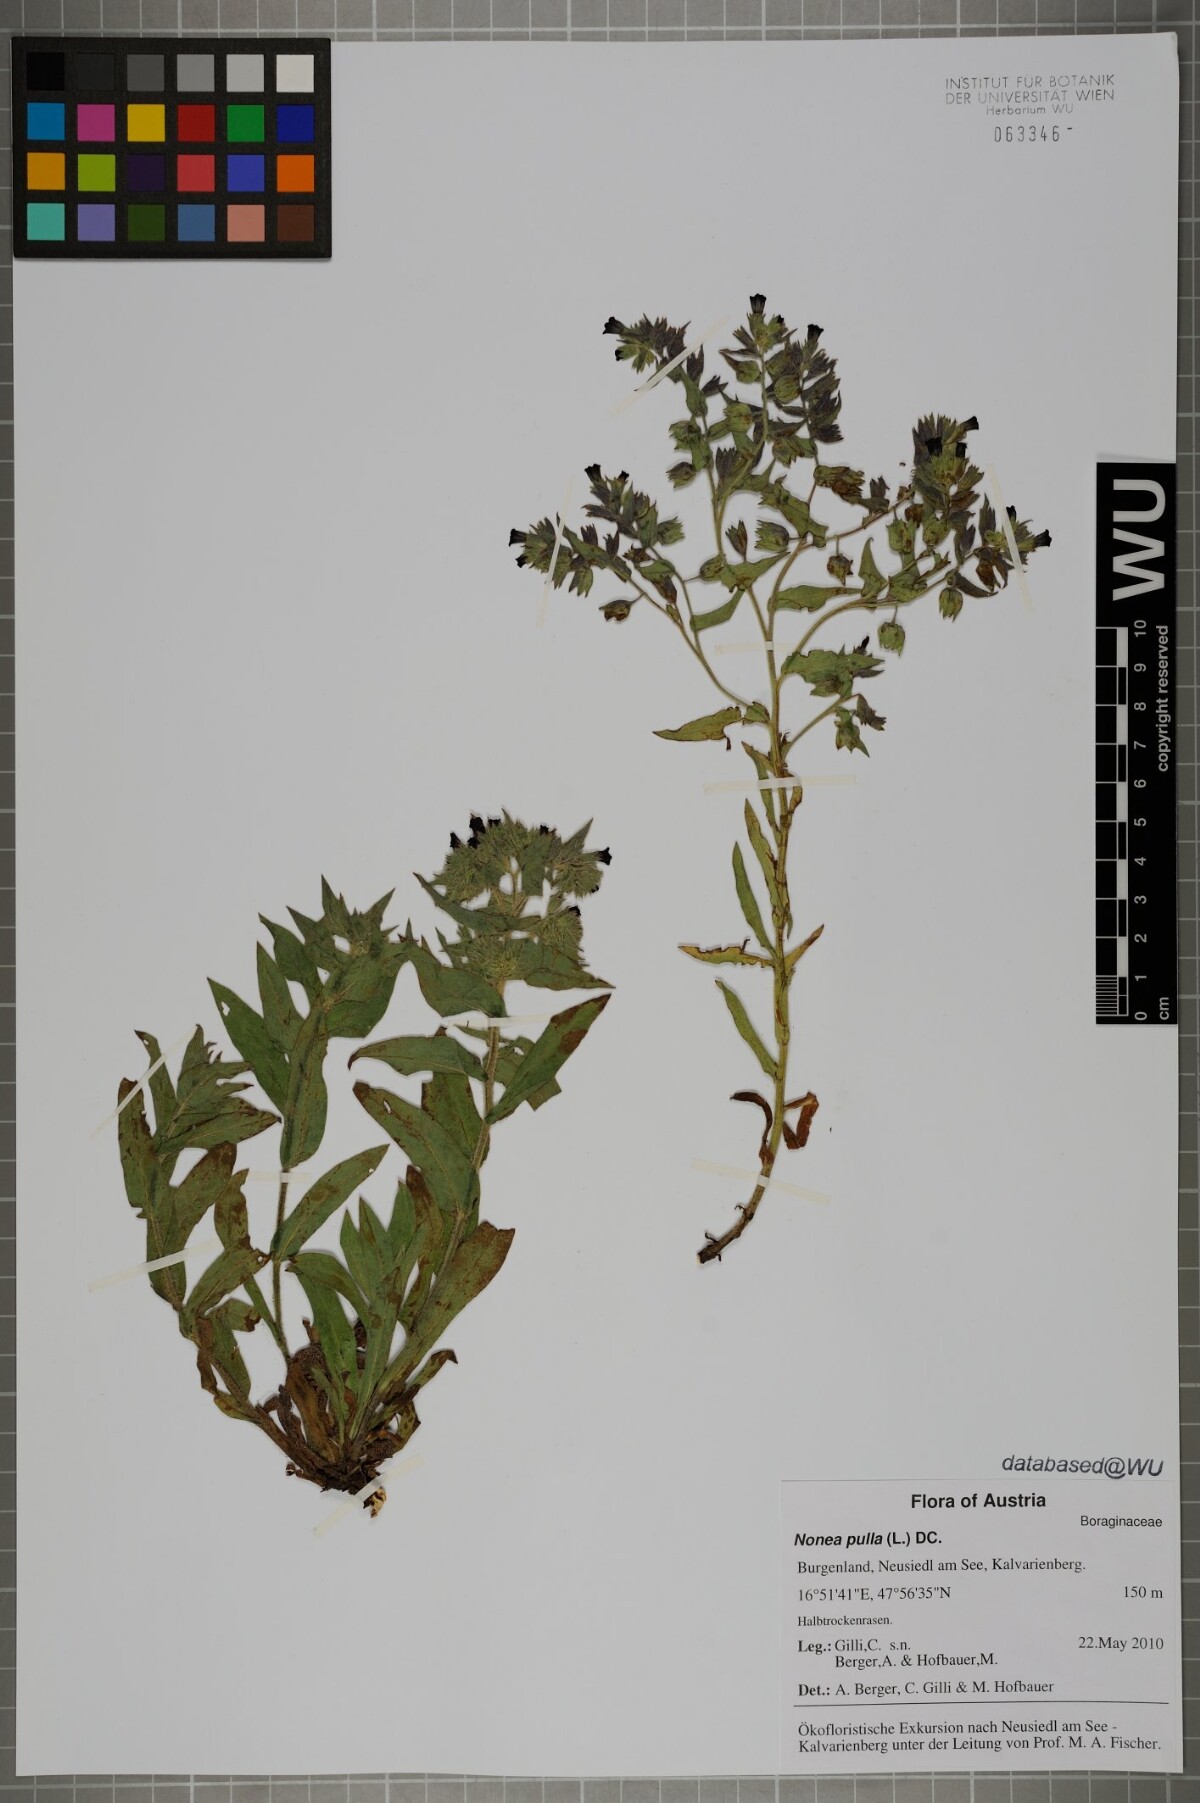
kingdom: Plantae
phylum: Tracheophyta
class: Magnoliopsida
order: Boraginales
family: Boraginaceae
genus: Nonea
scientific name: Nonea pulla
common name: Brown nonea
